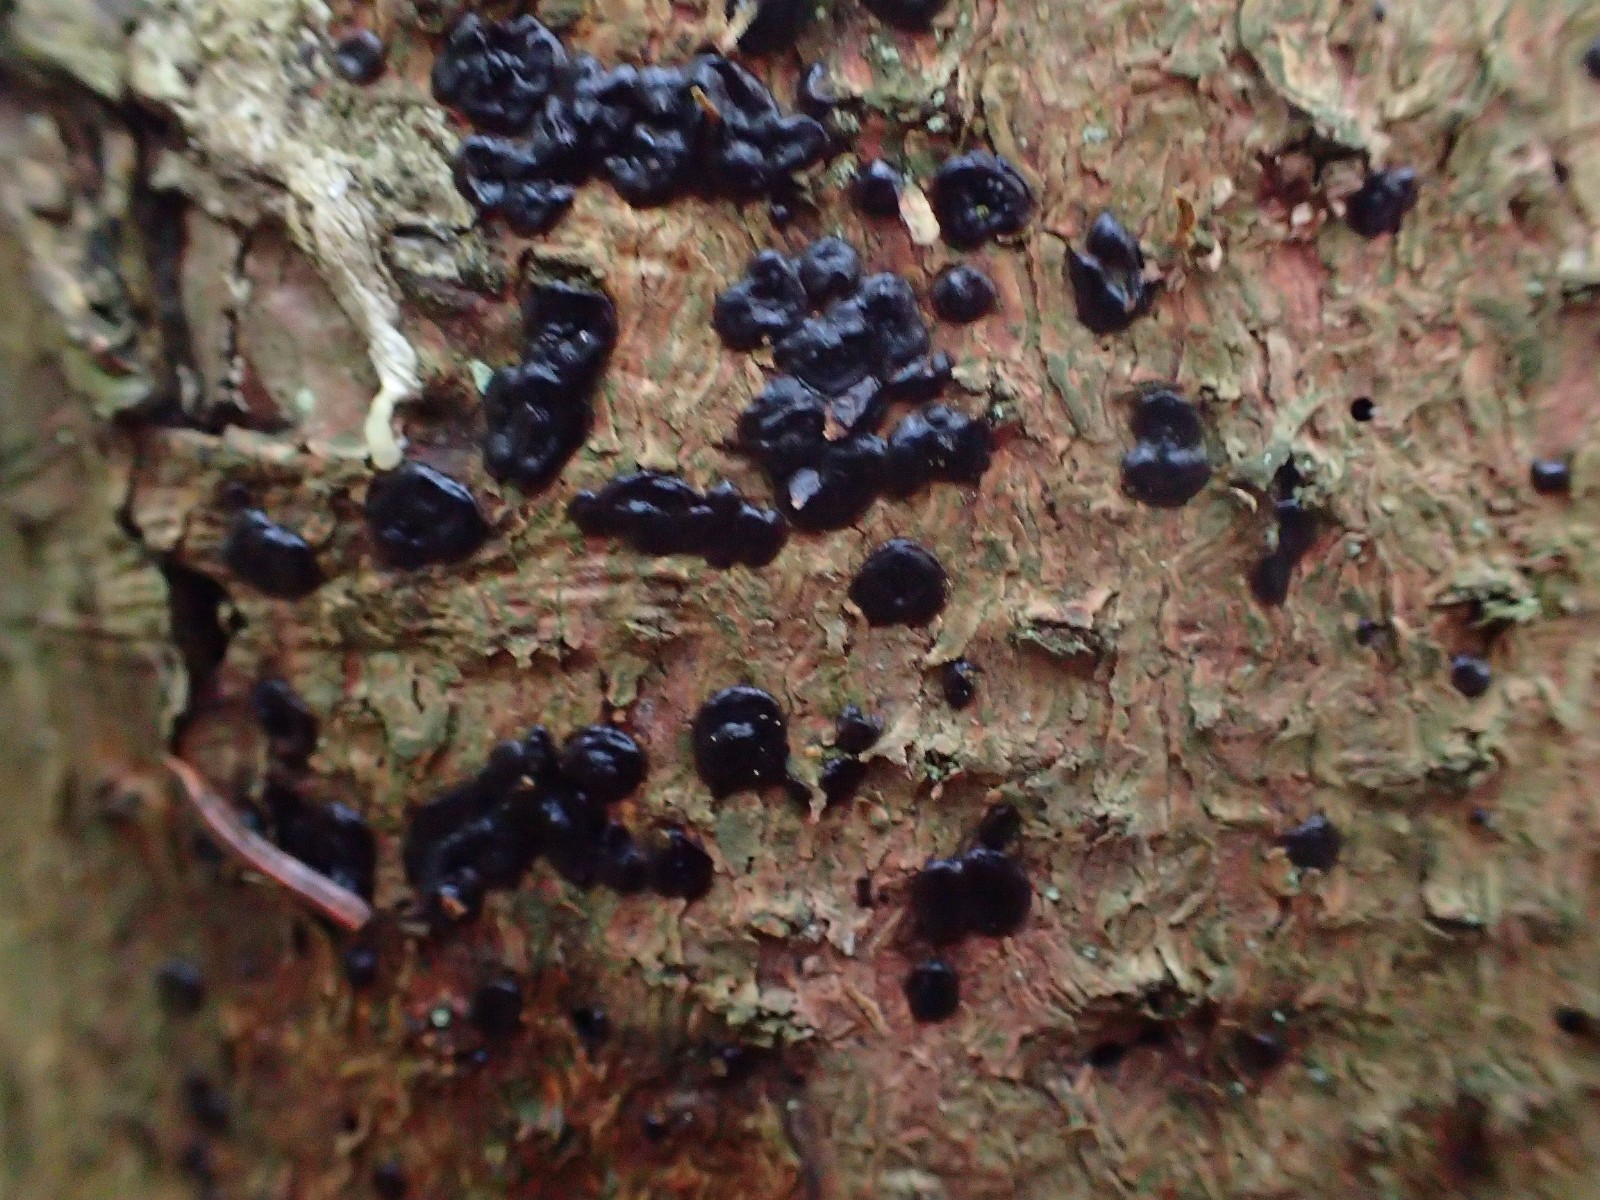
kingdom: Fungi
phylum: Basidiomycota
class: Agaricomycetes
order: Auriculariales
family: Auriculariaceae
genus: Exidia
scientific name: Exidia pithya
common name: gran-bævretop
